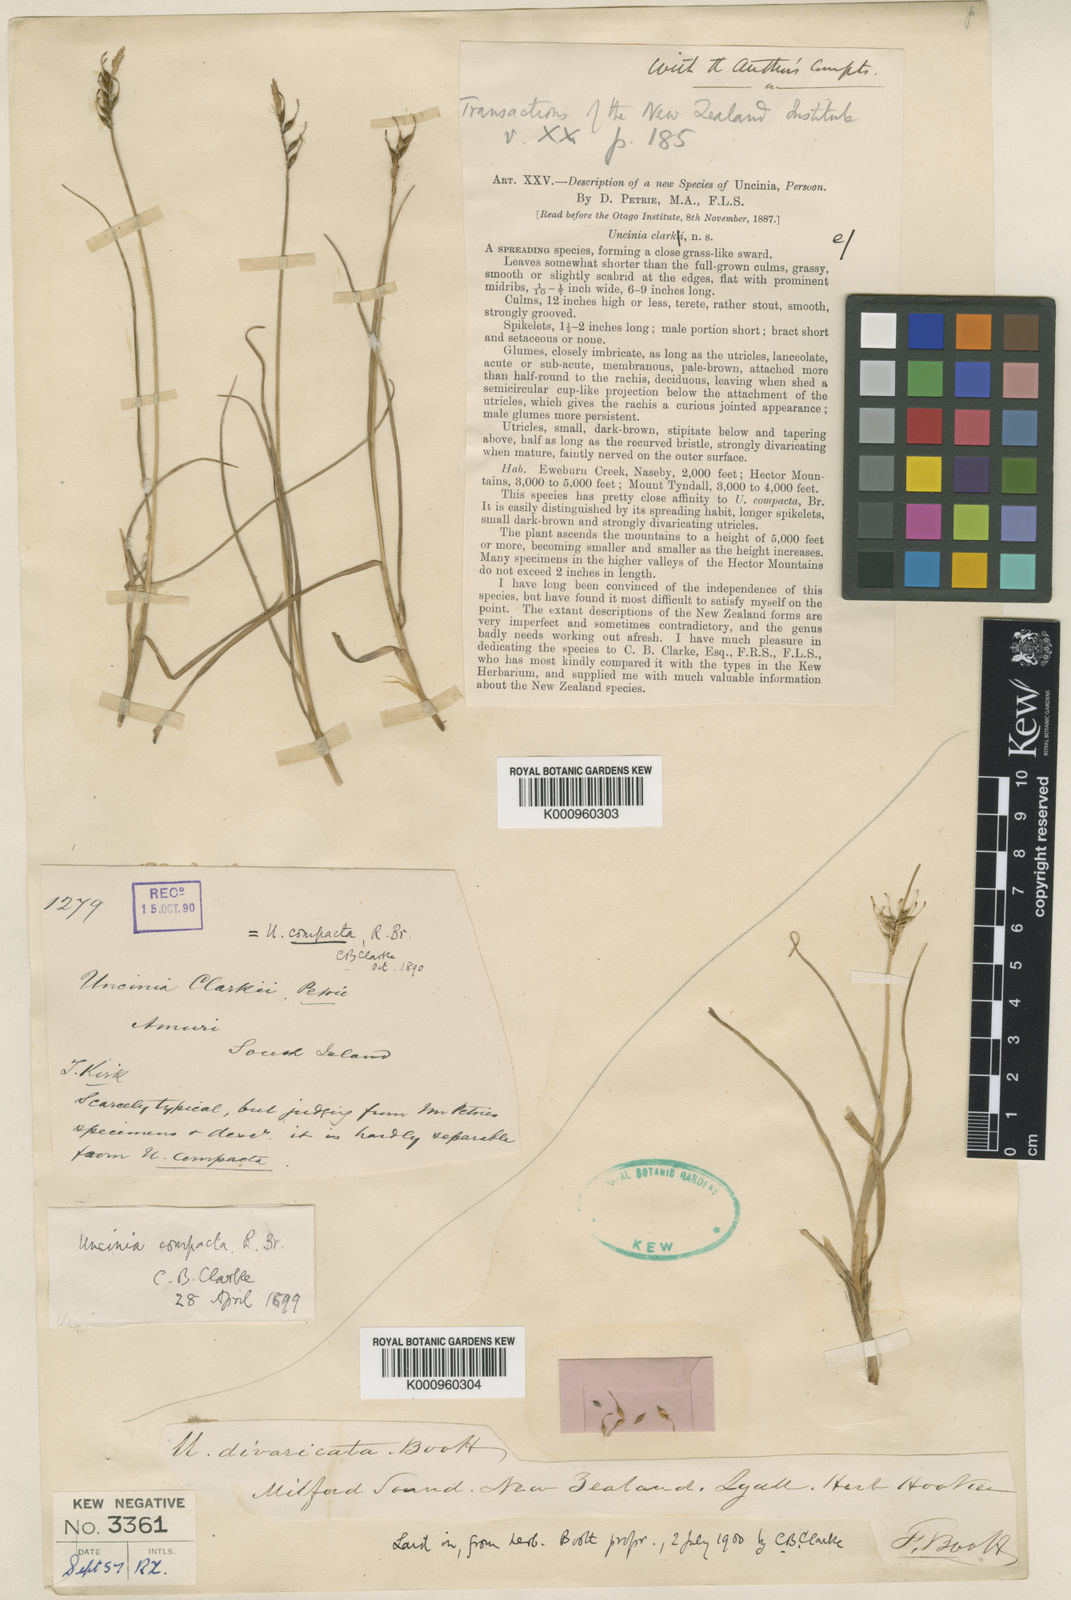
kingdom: Plantae
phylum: Tracheophyta
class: Liliopsida
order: Poales
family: Cyperaceae
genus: Carex
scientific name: Carex austrocompacta
